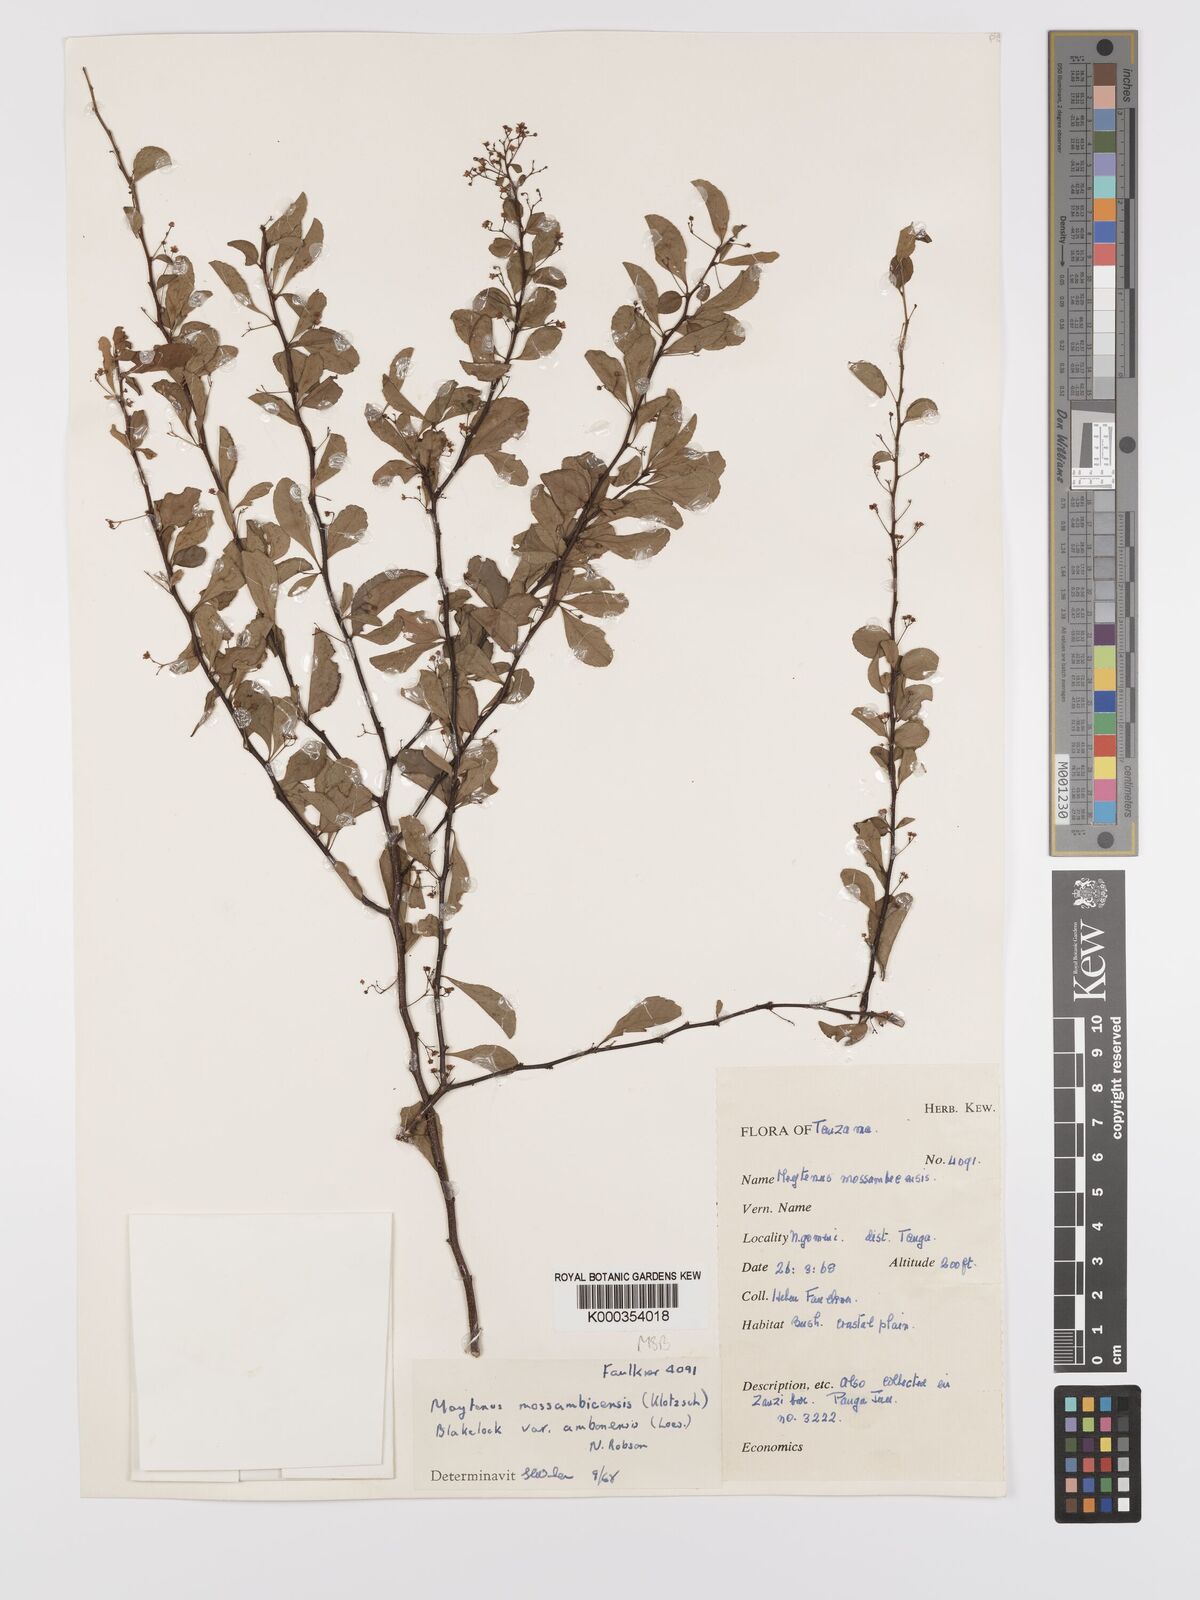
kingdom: Plantae
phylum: Tracheophyta
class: Magnoliopsida
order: Celastrales
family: Celastraceae
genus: Gymnosporia
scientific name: Gymnosporia mossambicensis
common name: Black forest spike-thorn
